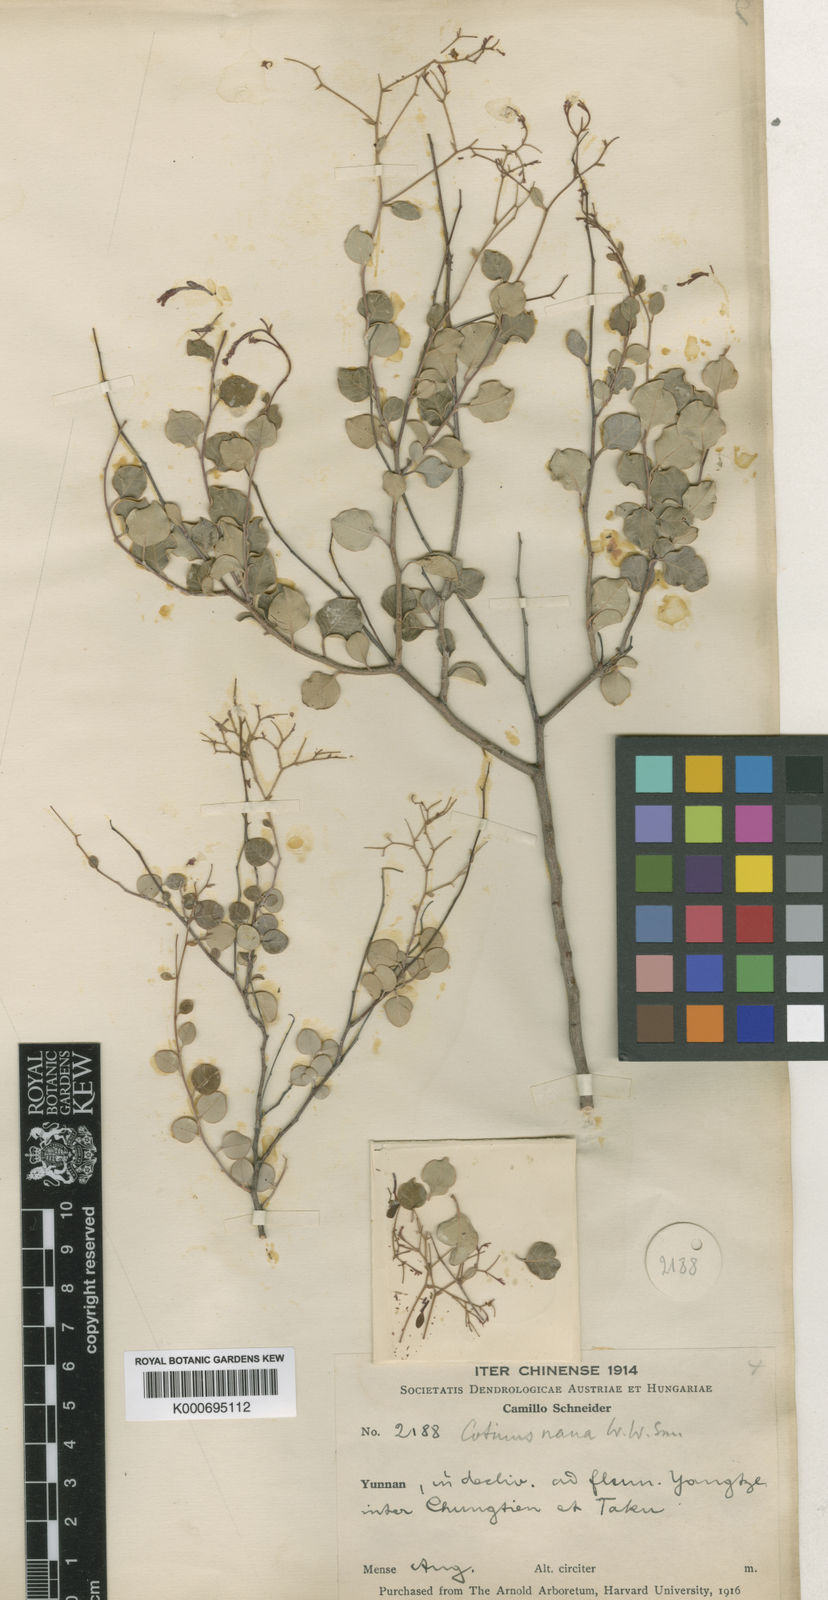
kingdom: Plantae
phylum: Tracheophyta
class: Magnoliopsida
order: Sapindales
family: Anacardiaceae
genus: Cotinus
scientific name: Cotinus
